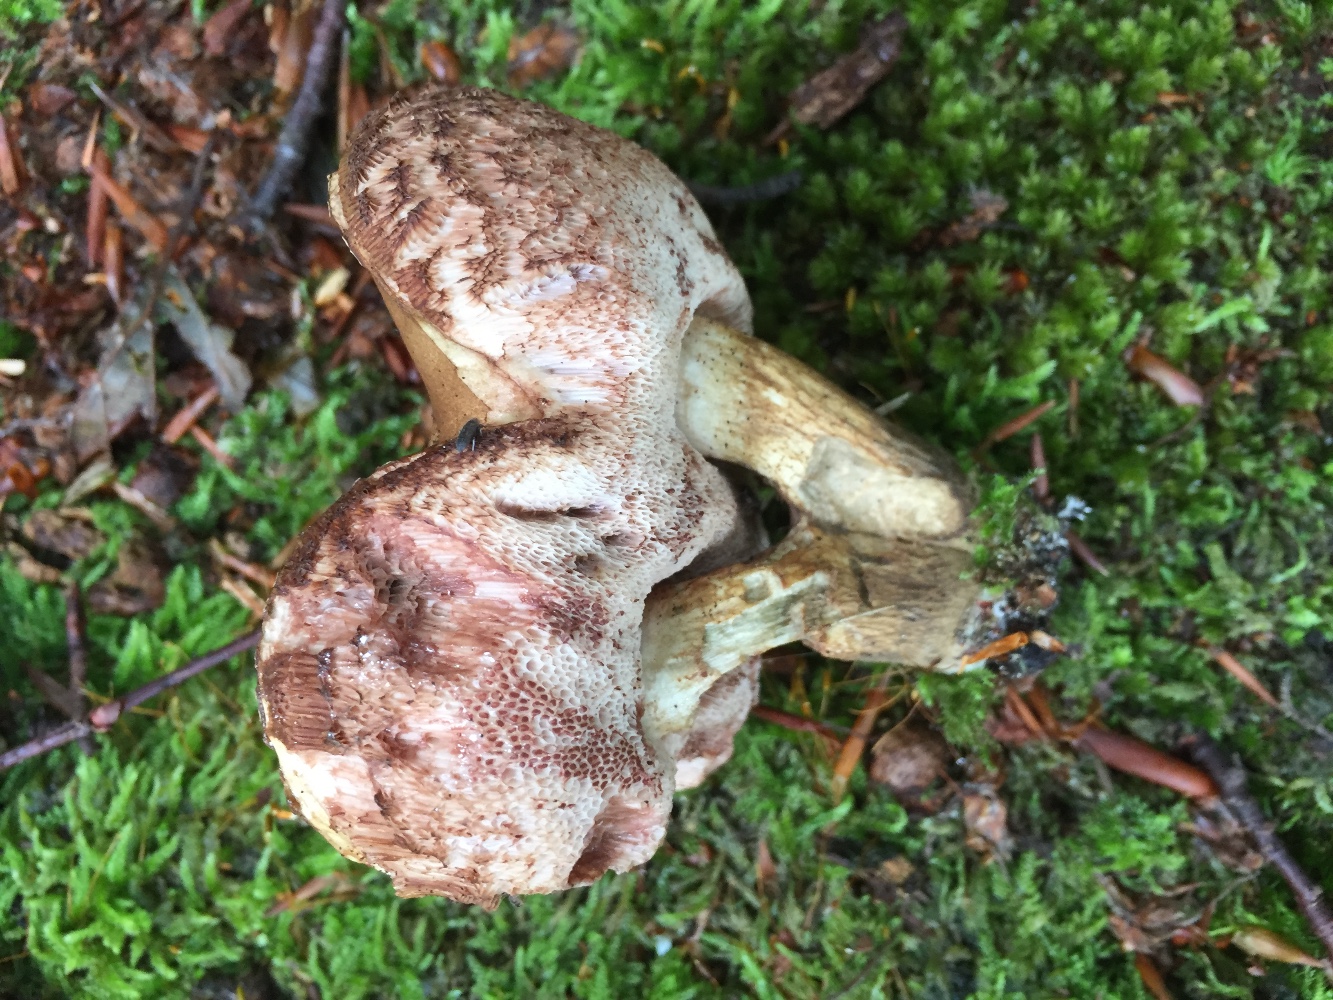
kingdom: Fungi
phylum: Basidiomycota
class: Agaricomycetes
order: Boletales
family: Boletaceae
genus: Tylopilus
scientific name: Tylopilus felleus
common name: galderørhat
